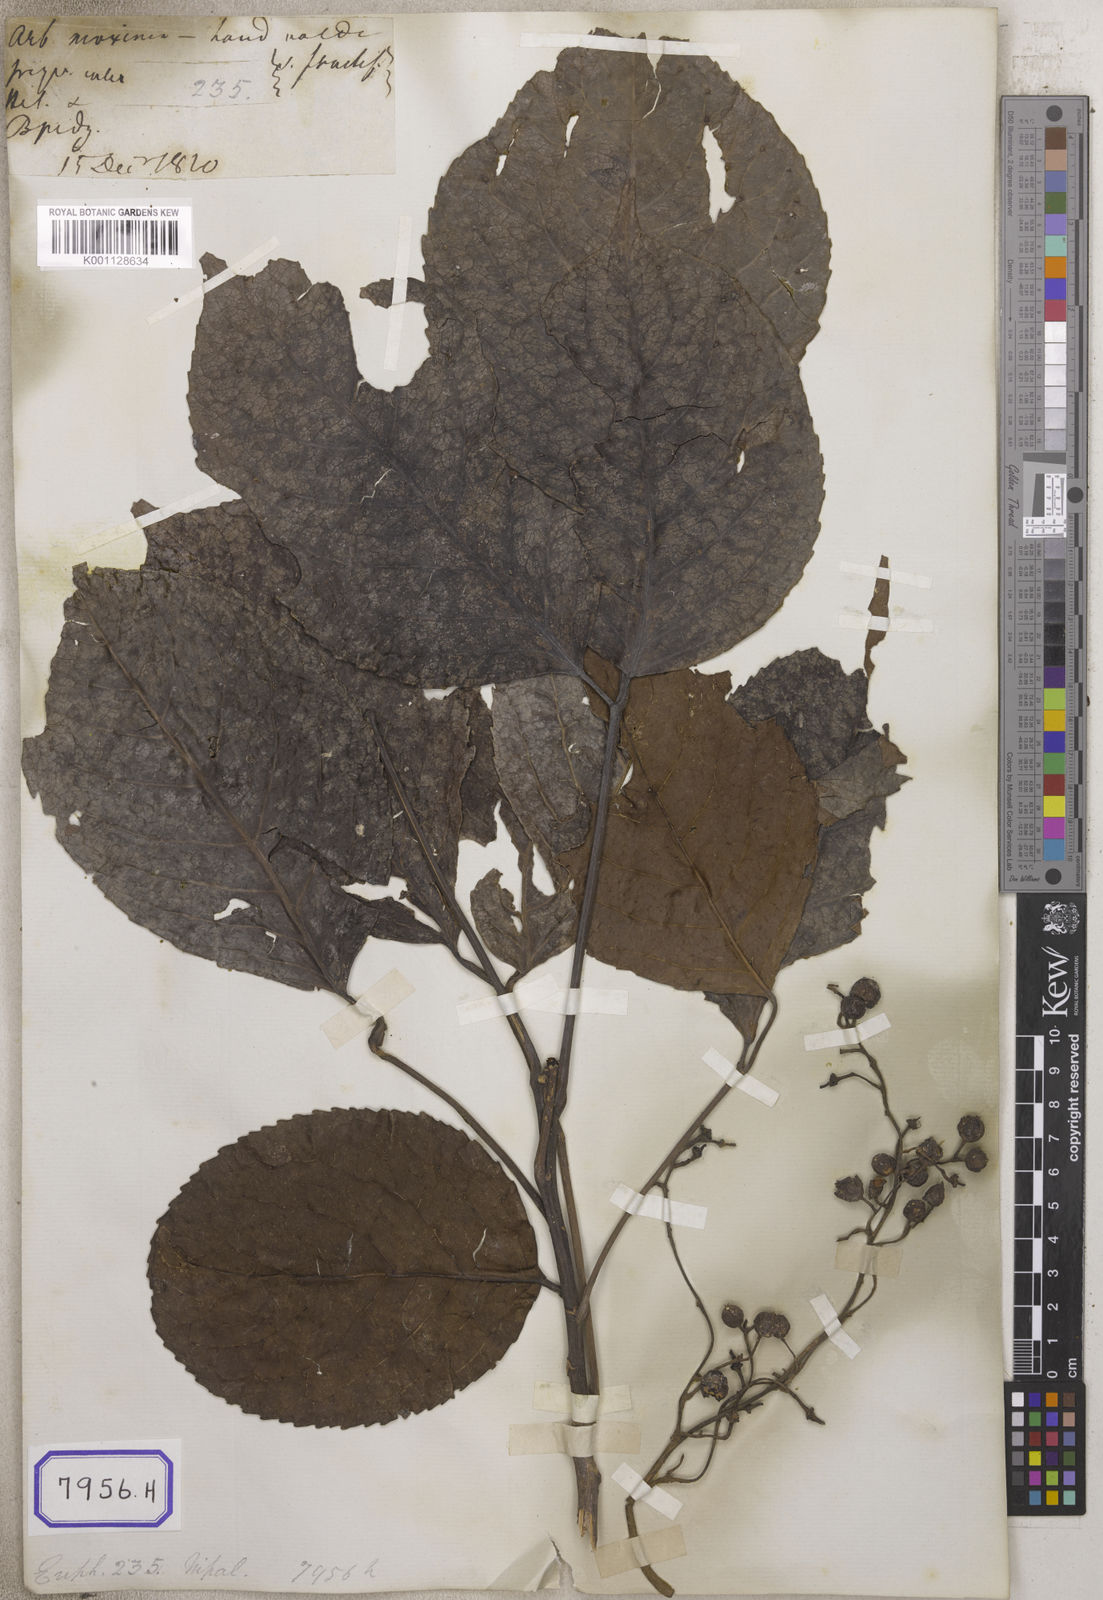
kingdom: Plantae
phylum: Tracheophyta
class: Magnoliopsida
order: Malpighiales
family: Euphorbiaceae
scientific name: Euphorbiaceae
